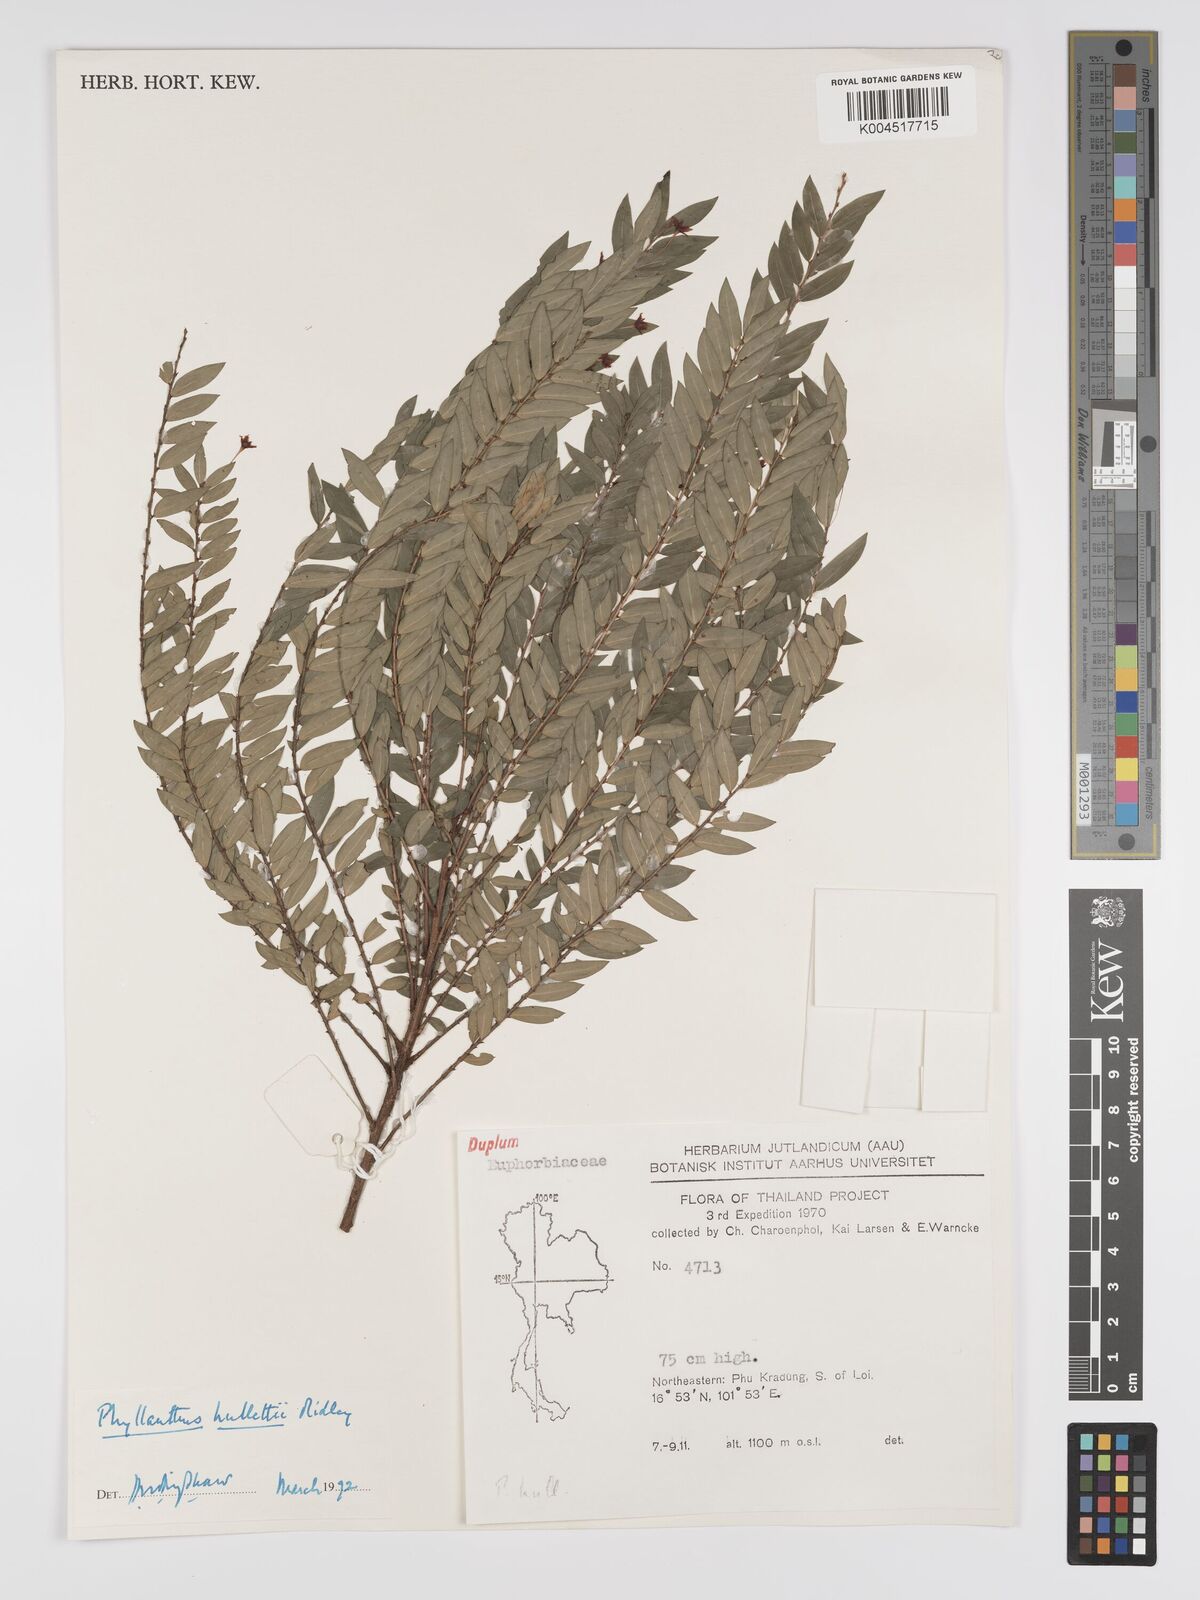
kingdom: Plantae
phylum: Tracheophyta
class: Magnoliopsida
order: Malpighiales
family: Phyllanthaceae
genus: Phyllanthus
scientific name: Phyllanthus gracilipes
